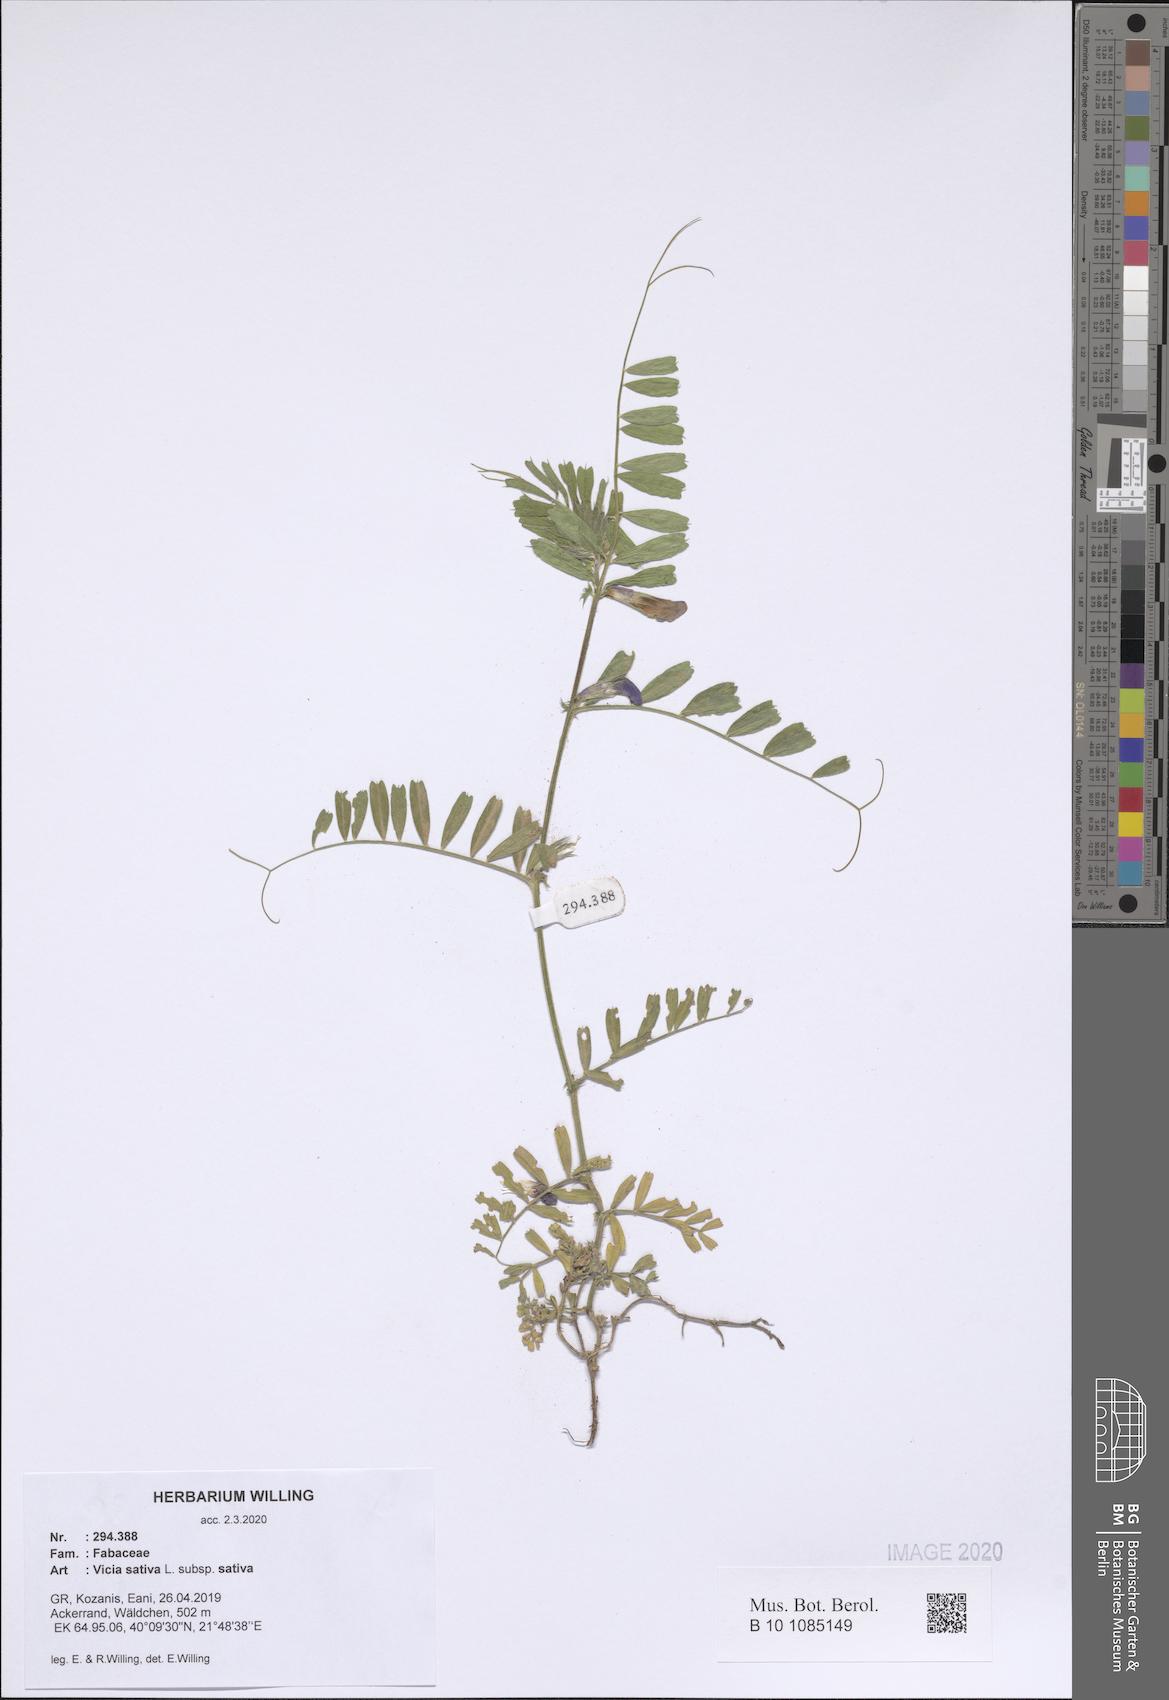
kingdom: Plantae
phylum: Tracheophyta
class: Magnoliopsida
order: Fabales
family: Fabaceae
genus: Vicia
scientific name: Vicia sativa
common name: Garden vetch
